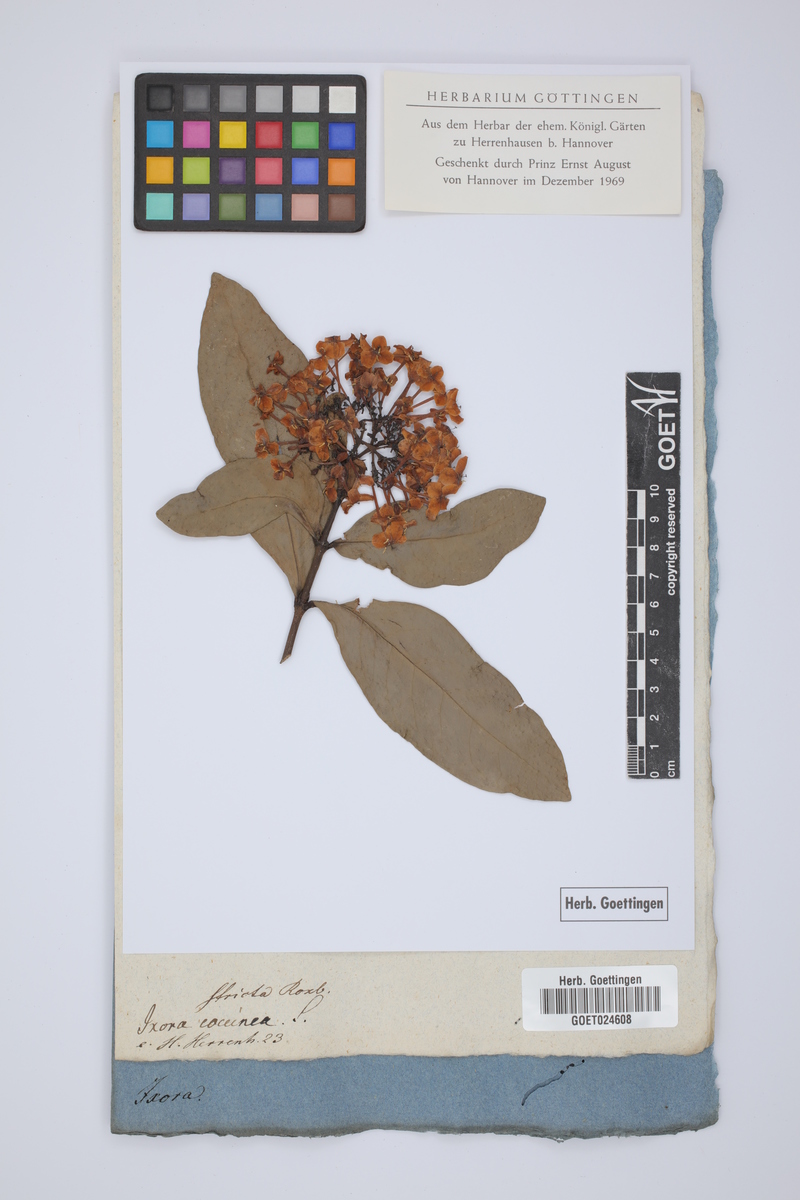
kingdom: Plantae
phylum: Tracheophyta
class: Magnoliopsida
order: Gentianales
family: Rubiaceae
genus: Ixora
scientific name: Ixora coccinea
